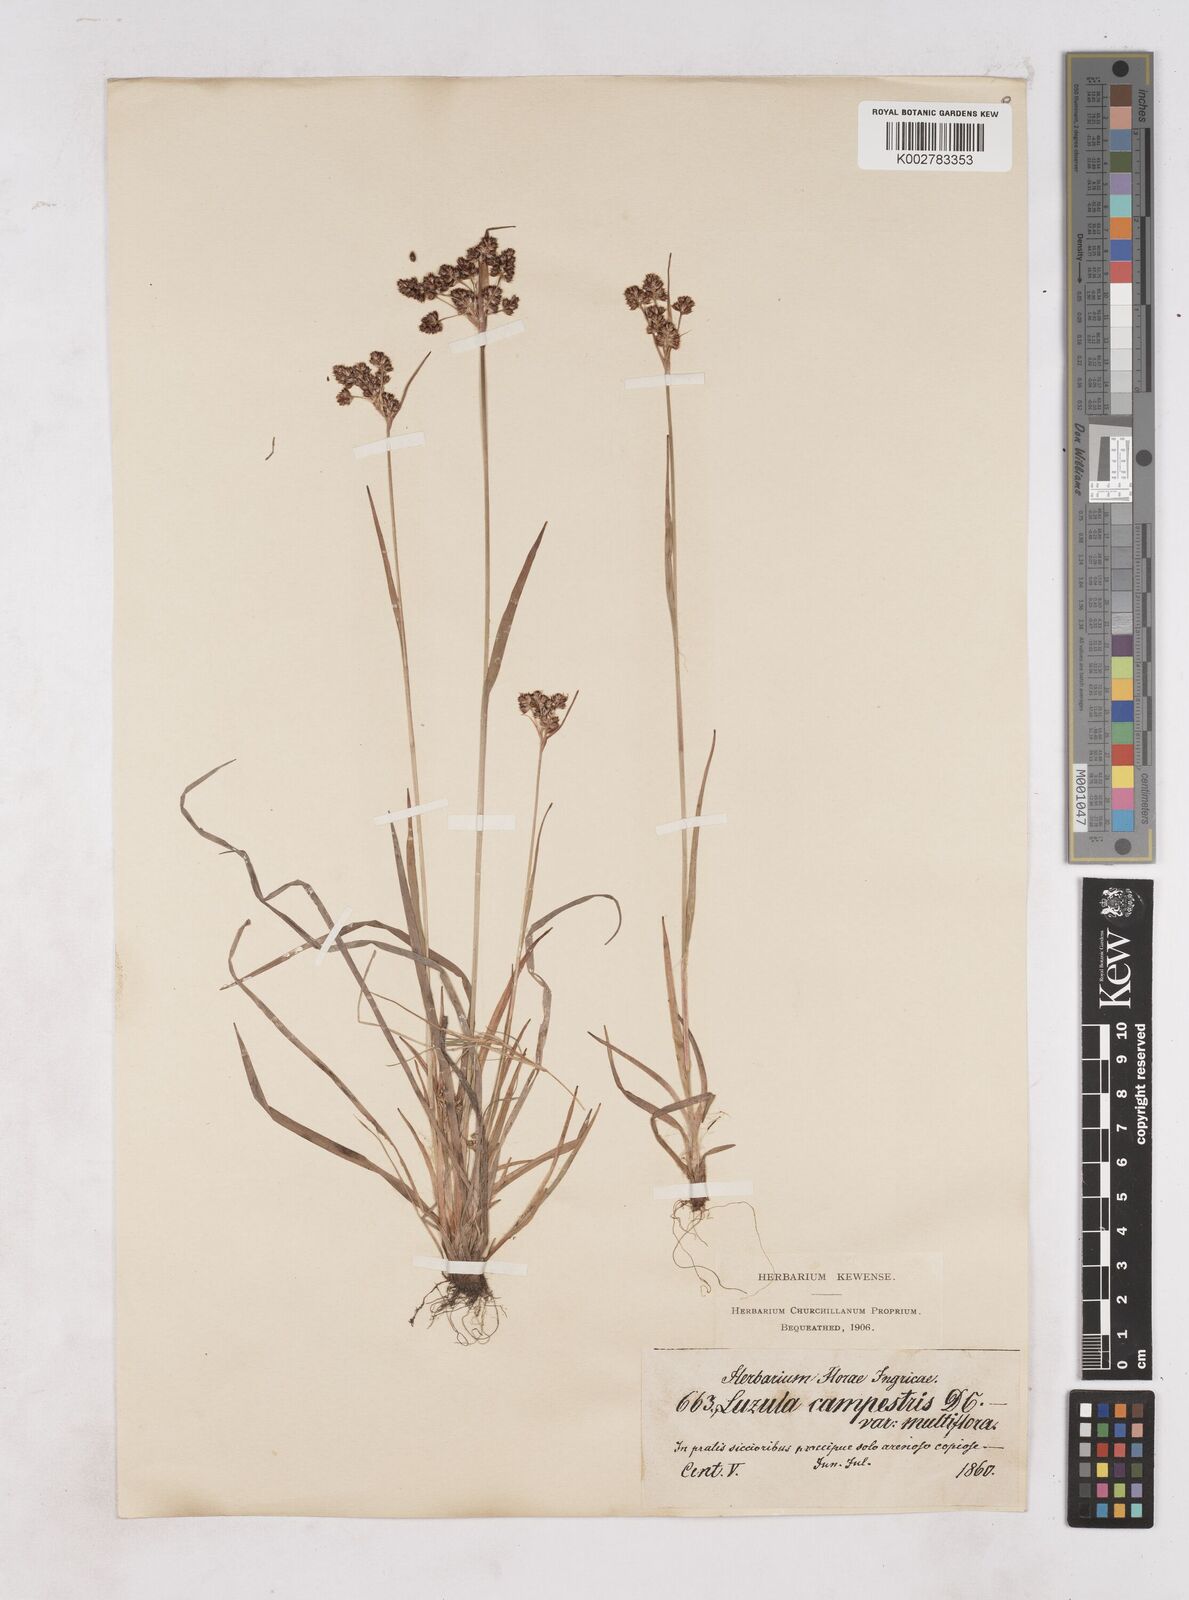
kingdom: Plantae
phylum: Tracheophyta
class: Liliopsida
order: Poales
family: Juncaceae
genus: Luzula
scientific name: Luzula multiflora
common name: Heath wood-rush
